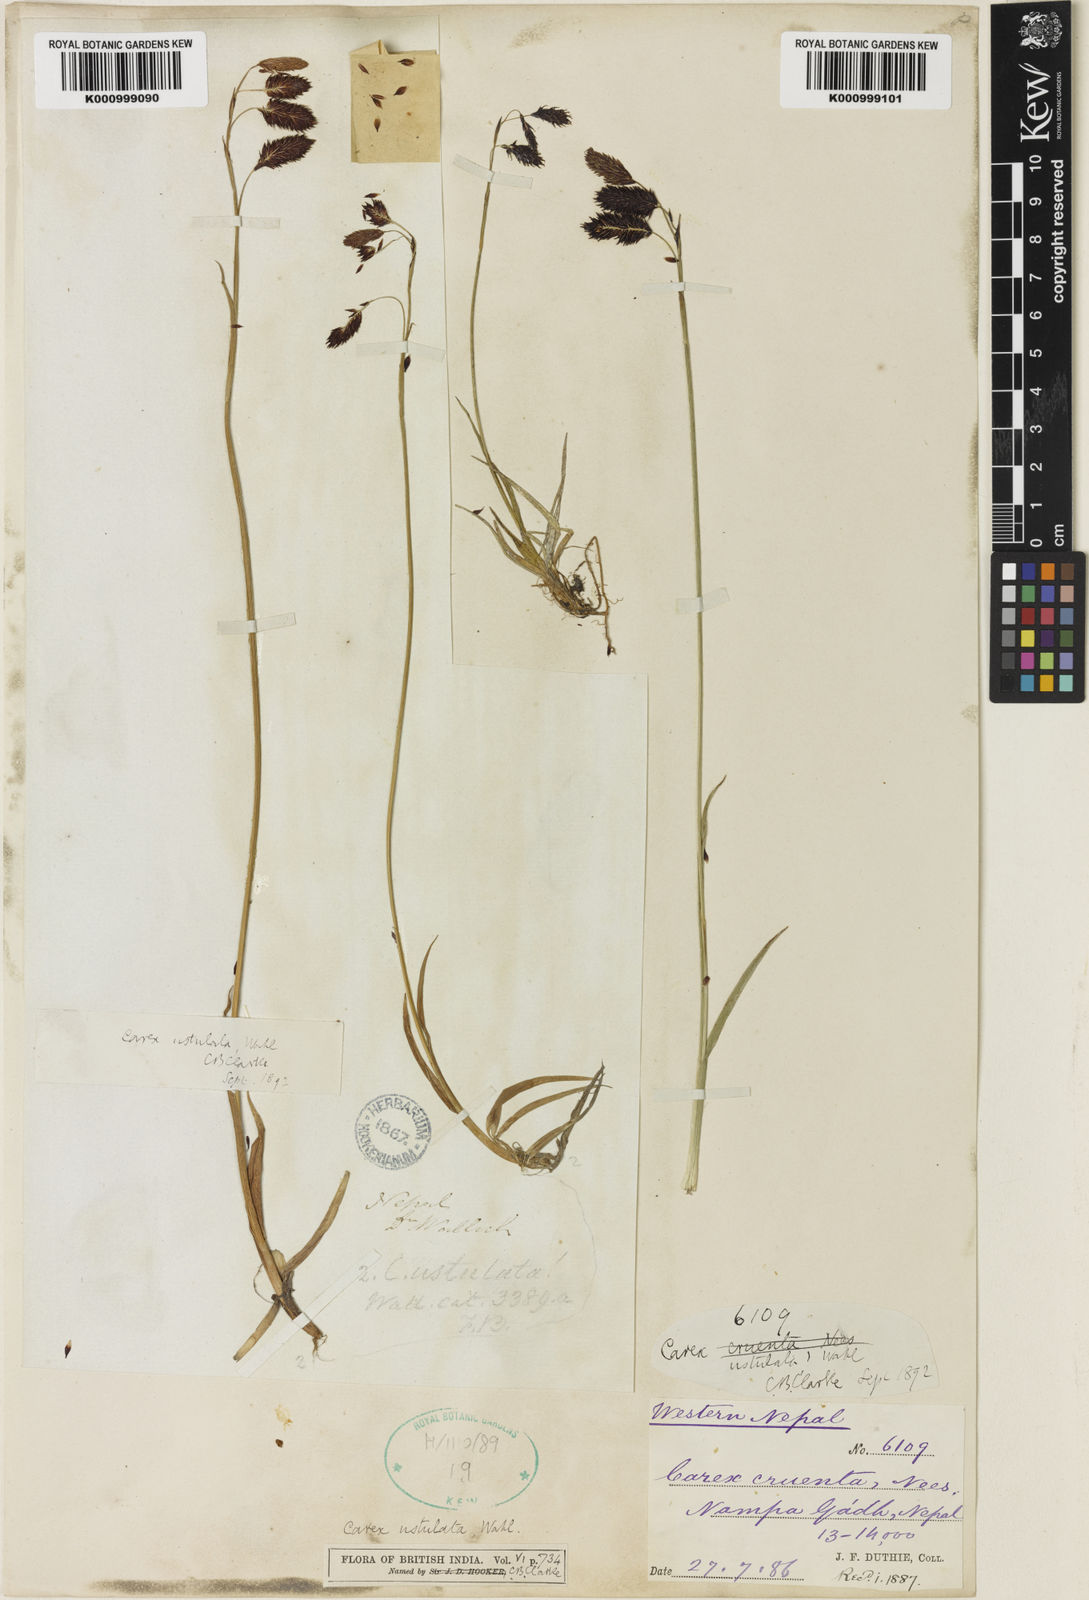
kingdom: Plantae
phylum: Tracheophyta
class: Liliopsida
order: Poales
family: Cyperaceae
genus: Carex
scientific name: Carex atrofusca
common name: Scorched alpine-sedge
